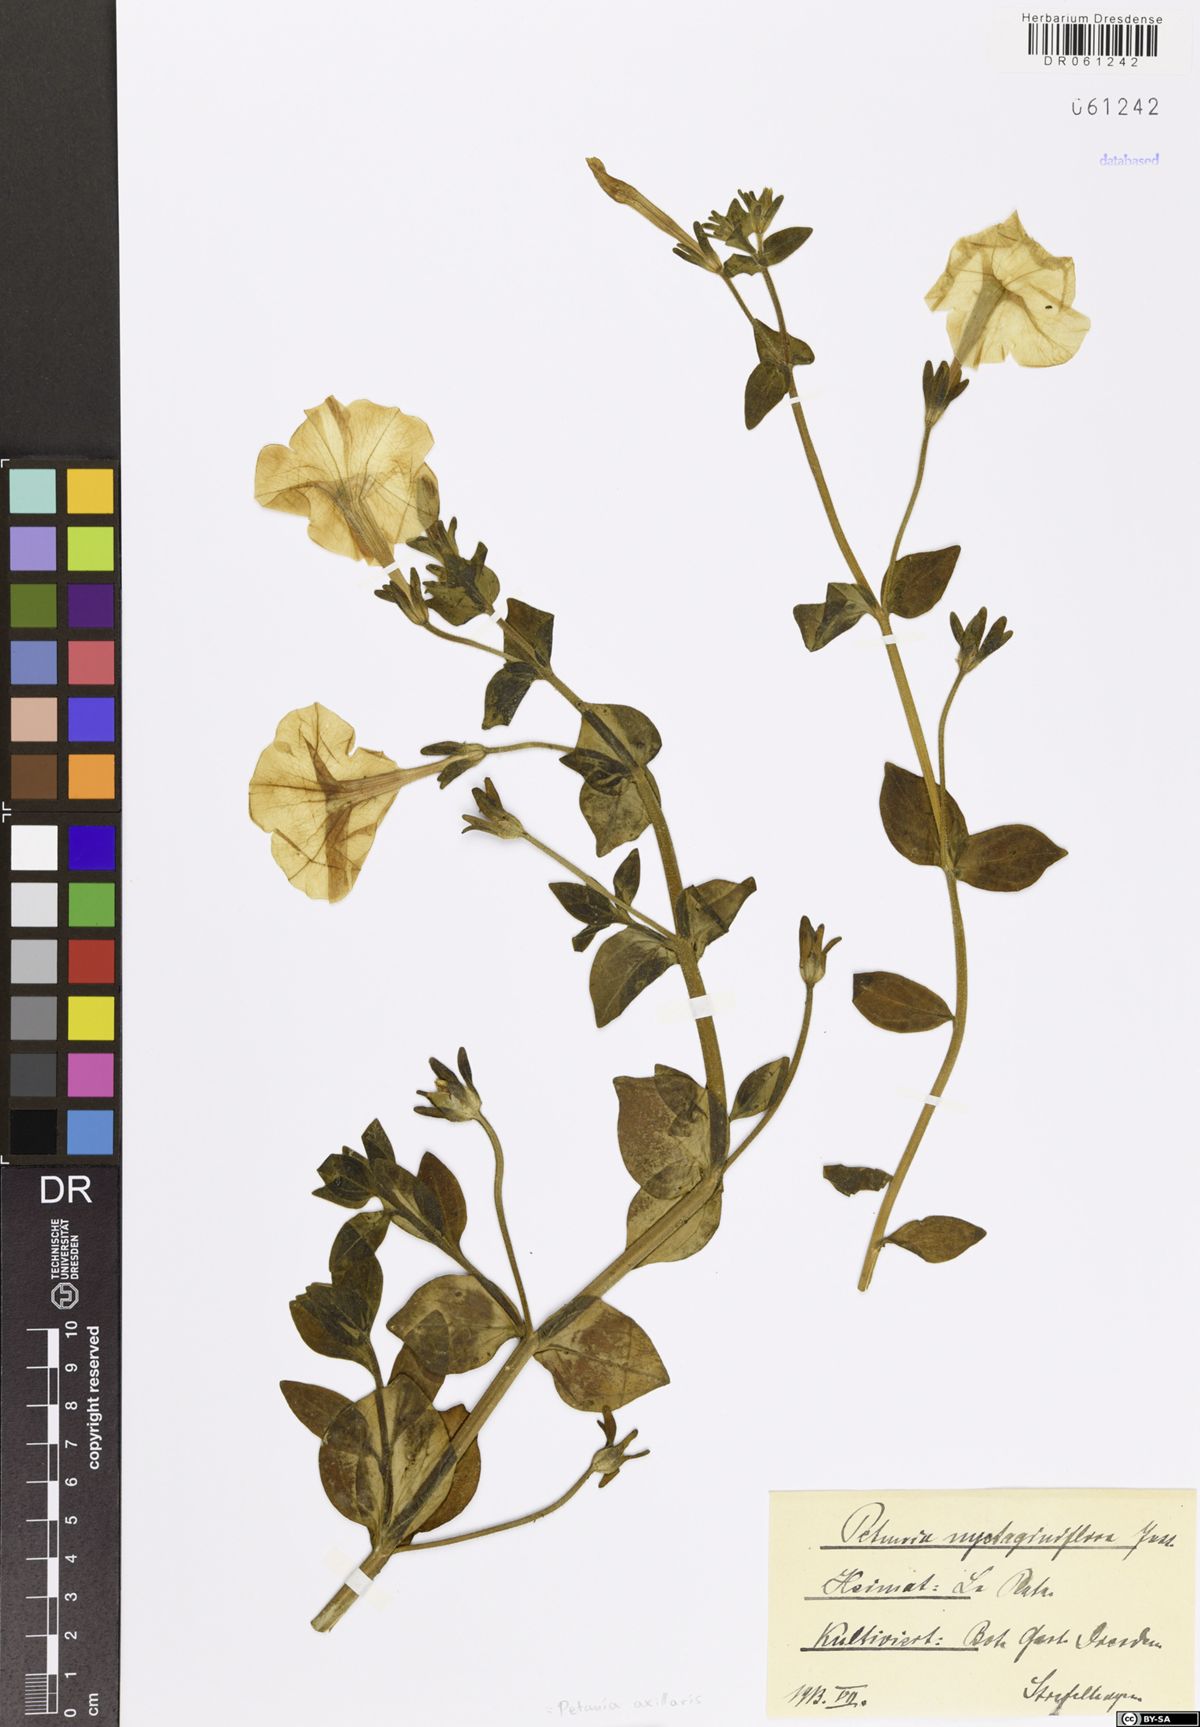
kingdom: Plantae
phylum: Tracheophyta
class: Magnoliopsida
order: Solanales
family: Solanaceae
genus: Petunia
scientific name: Petunia axillaris
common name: Large white petunia
